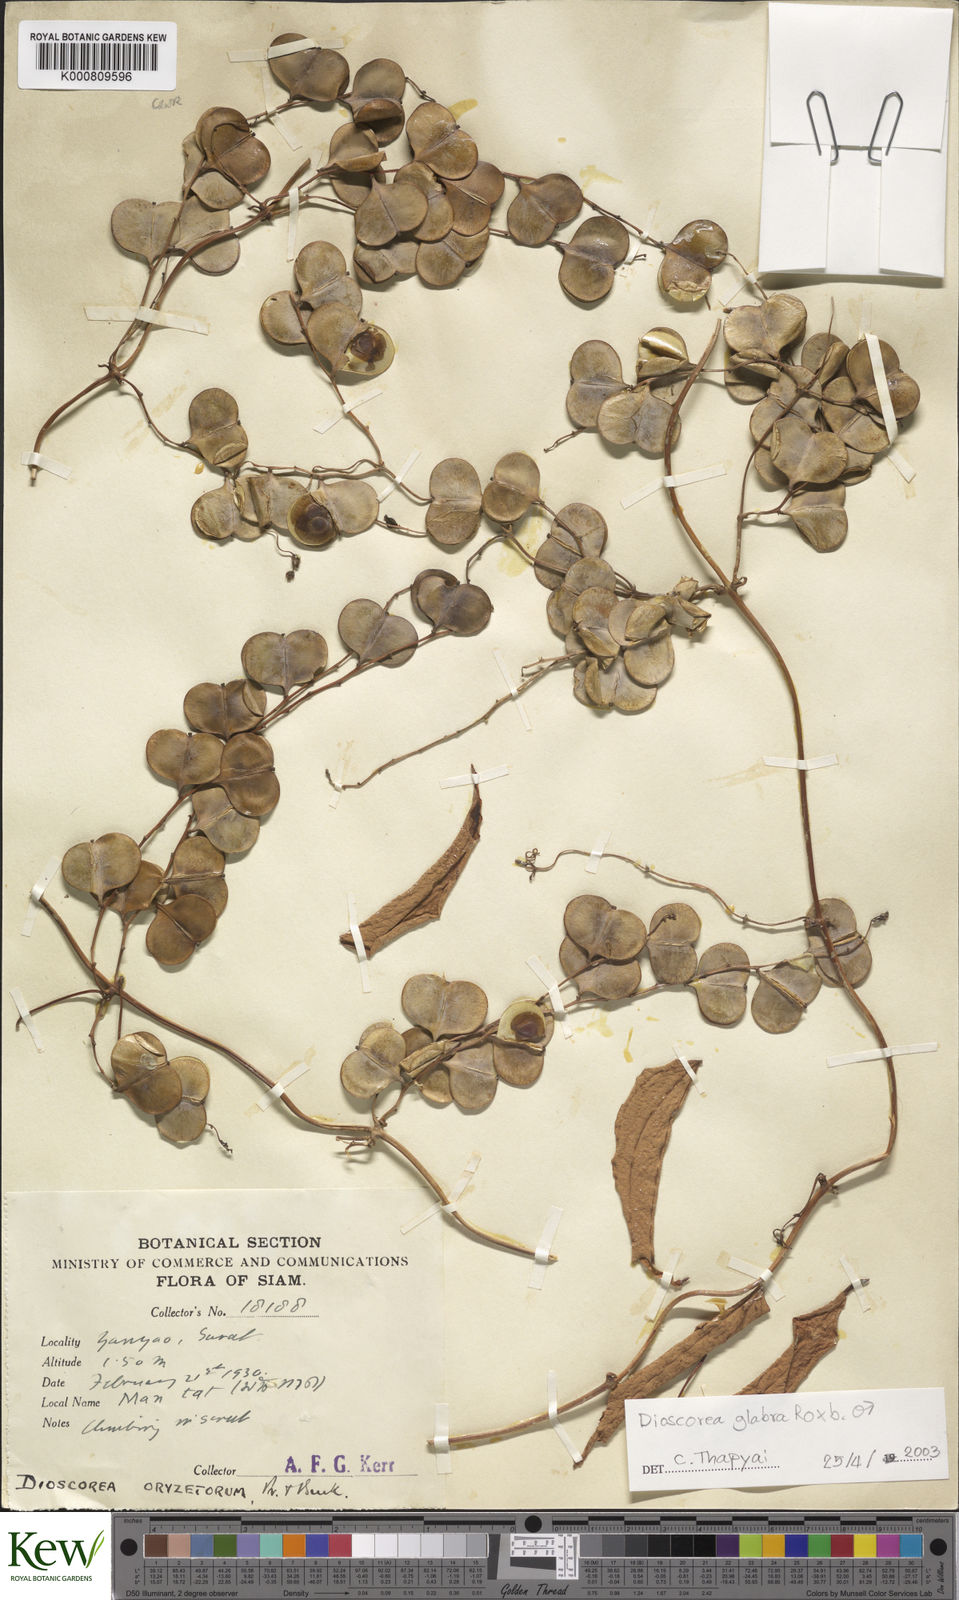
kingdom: Plantae
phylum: Tracheophyta
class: Liliopsida
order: Dioscoreales
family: Dioscoreaceae
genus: Dioscorea
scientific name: Dioscorea glabra
